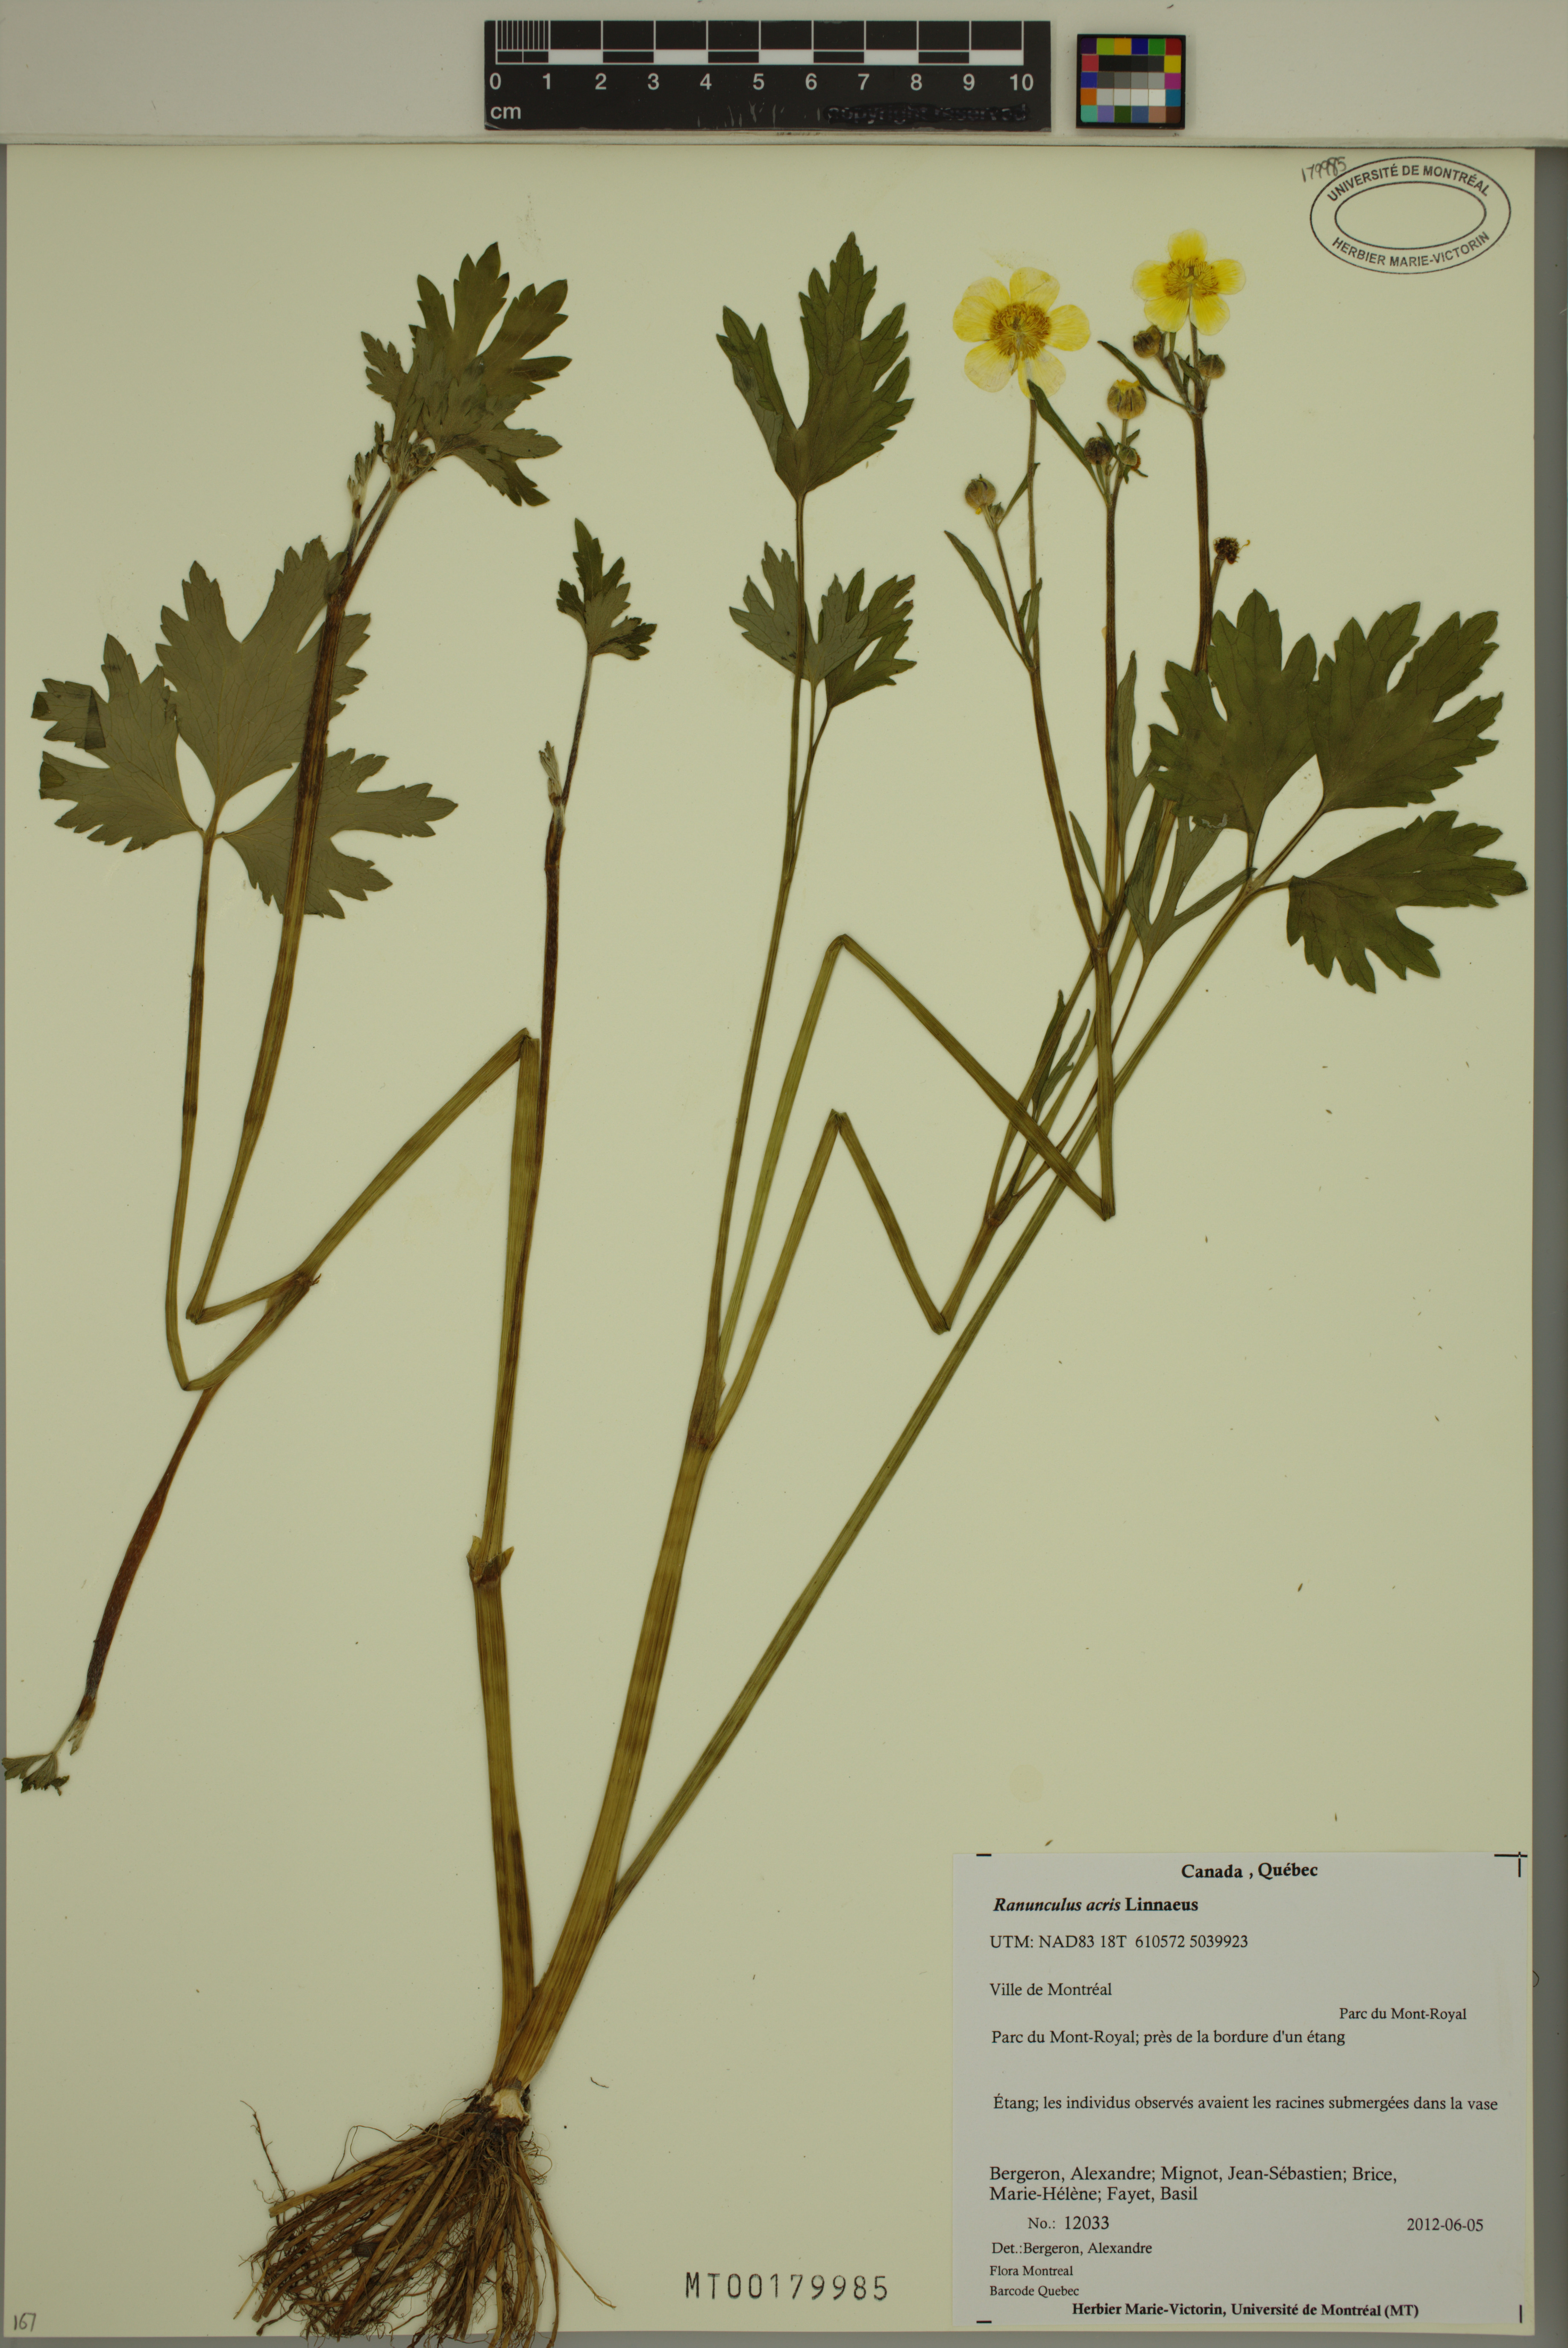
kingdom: Plantae
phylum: Tracheophyta
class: Magnoliopsida
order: Ranunculales
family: Ranunculaceae
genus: Ranunculus
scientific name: Ranunculus acris
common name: Meadow buttercup
